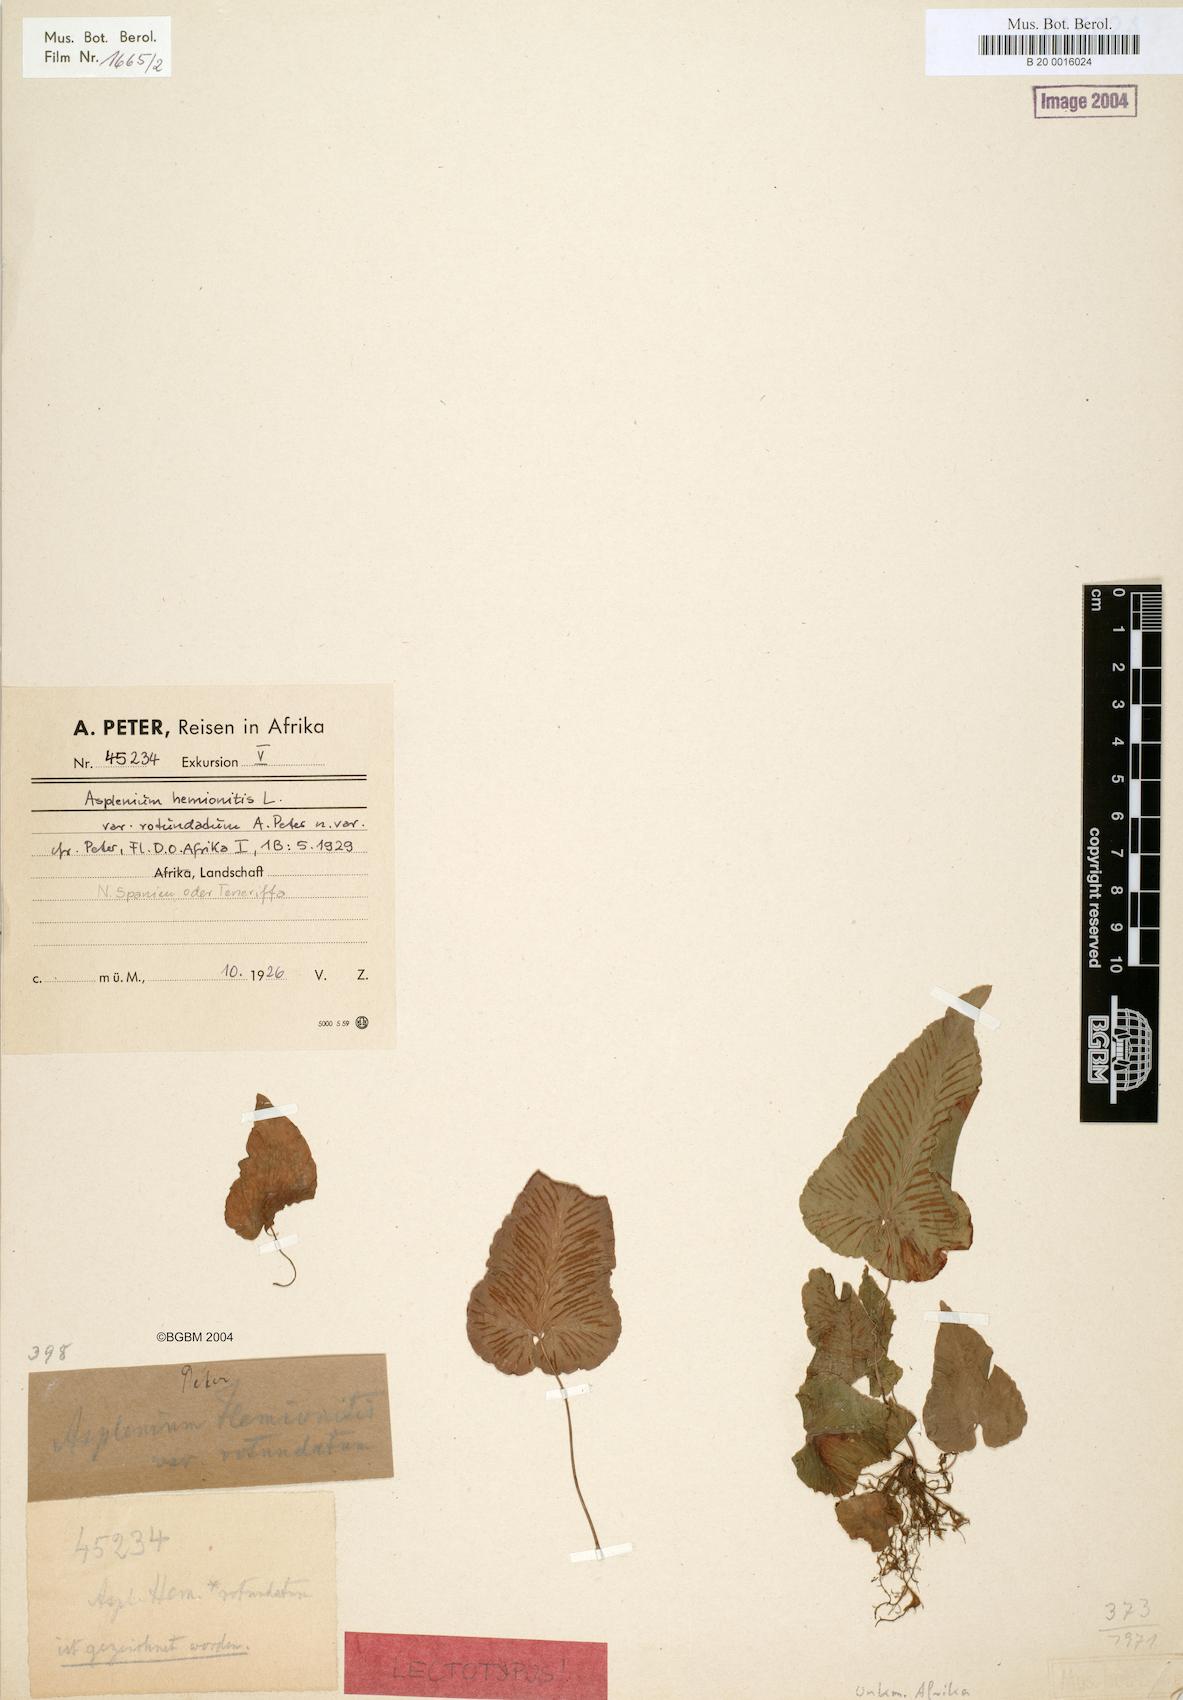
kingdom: Plantae
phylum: Tracheophyta
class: Polypodiopsida
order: Polypodiales
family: Aspleniaceae
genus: Asplenium
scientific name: Asplenium hemionitis
